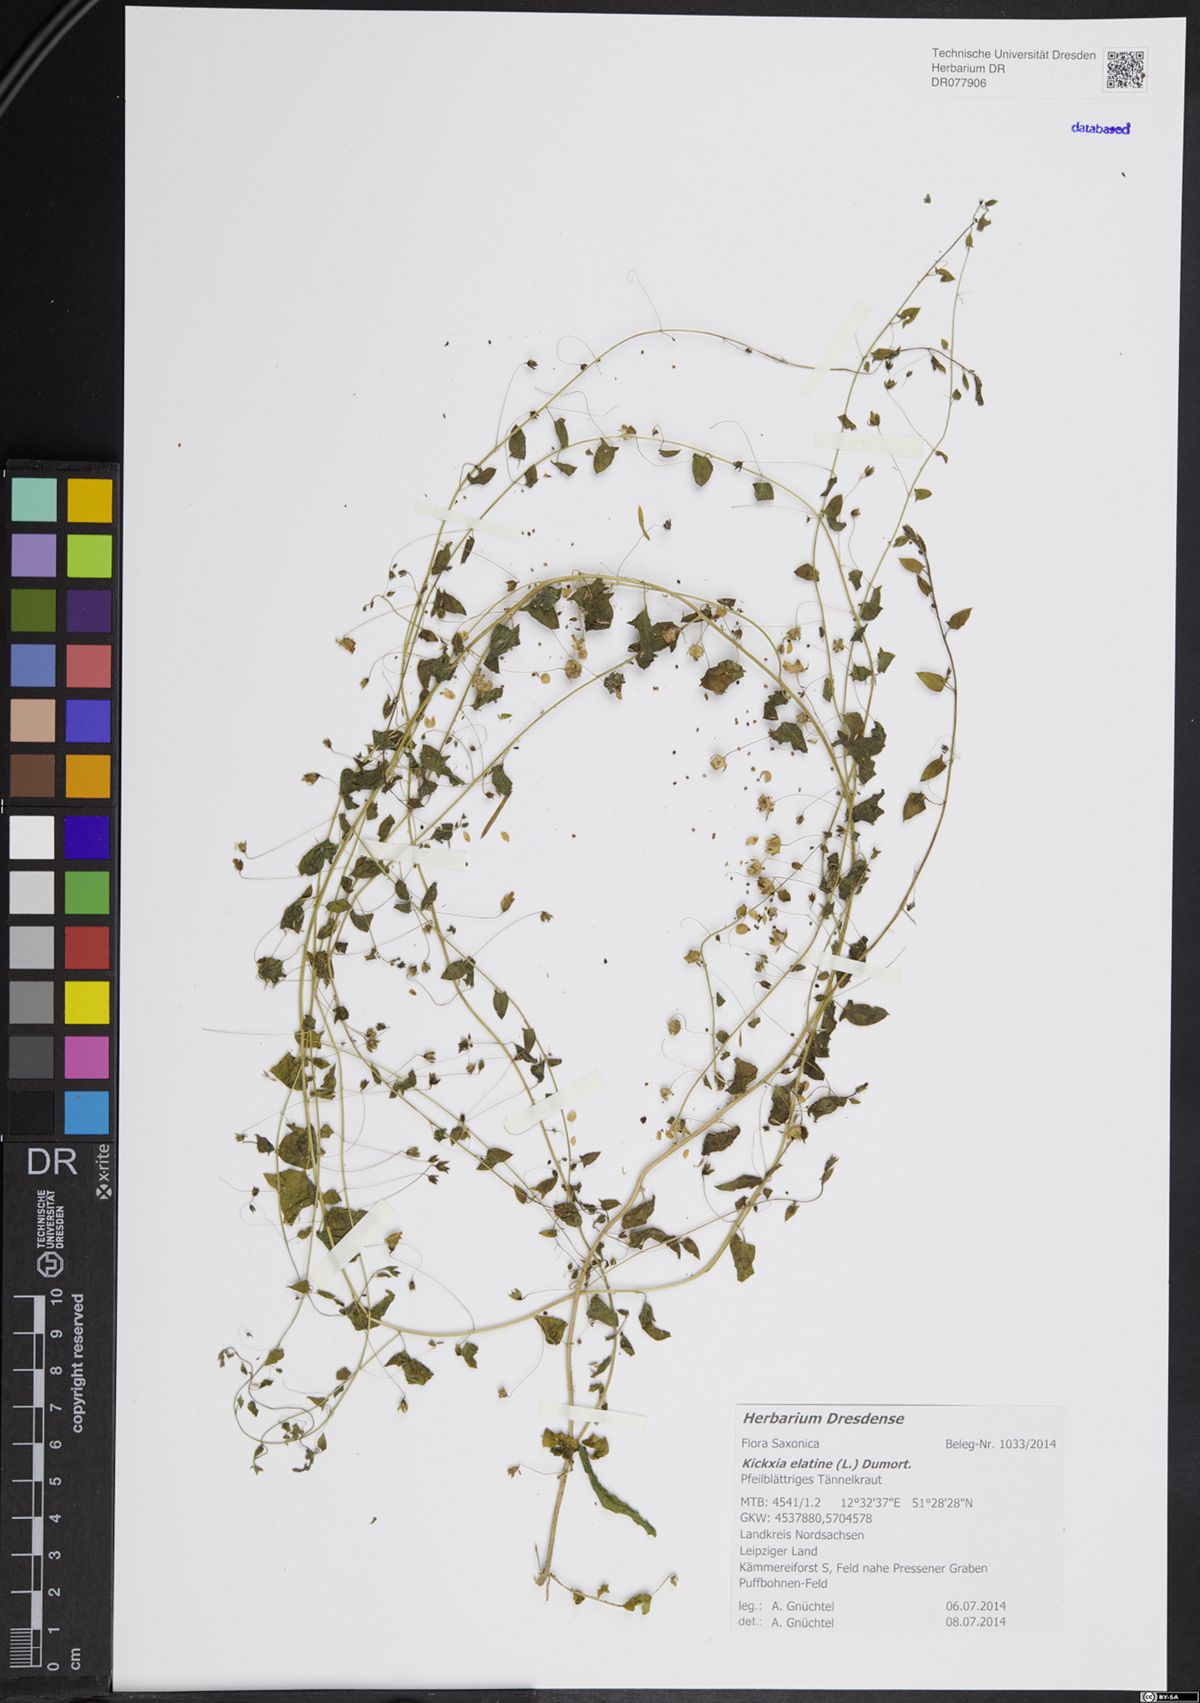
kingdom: Plantae
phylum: Tracheophyta
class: Magnoliopsida
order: Lamiales
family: Plantaginaceae
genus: Kickxia
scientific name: Kickxia elatine
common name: Sharp-leaved fluellen
